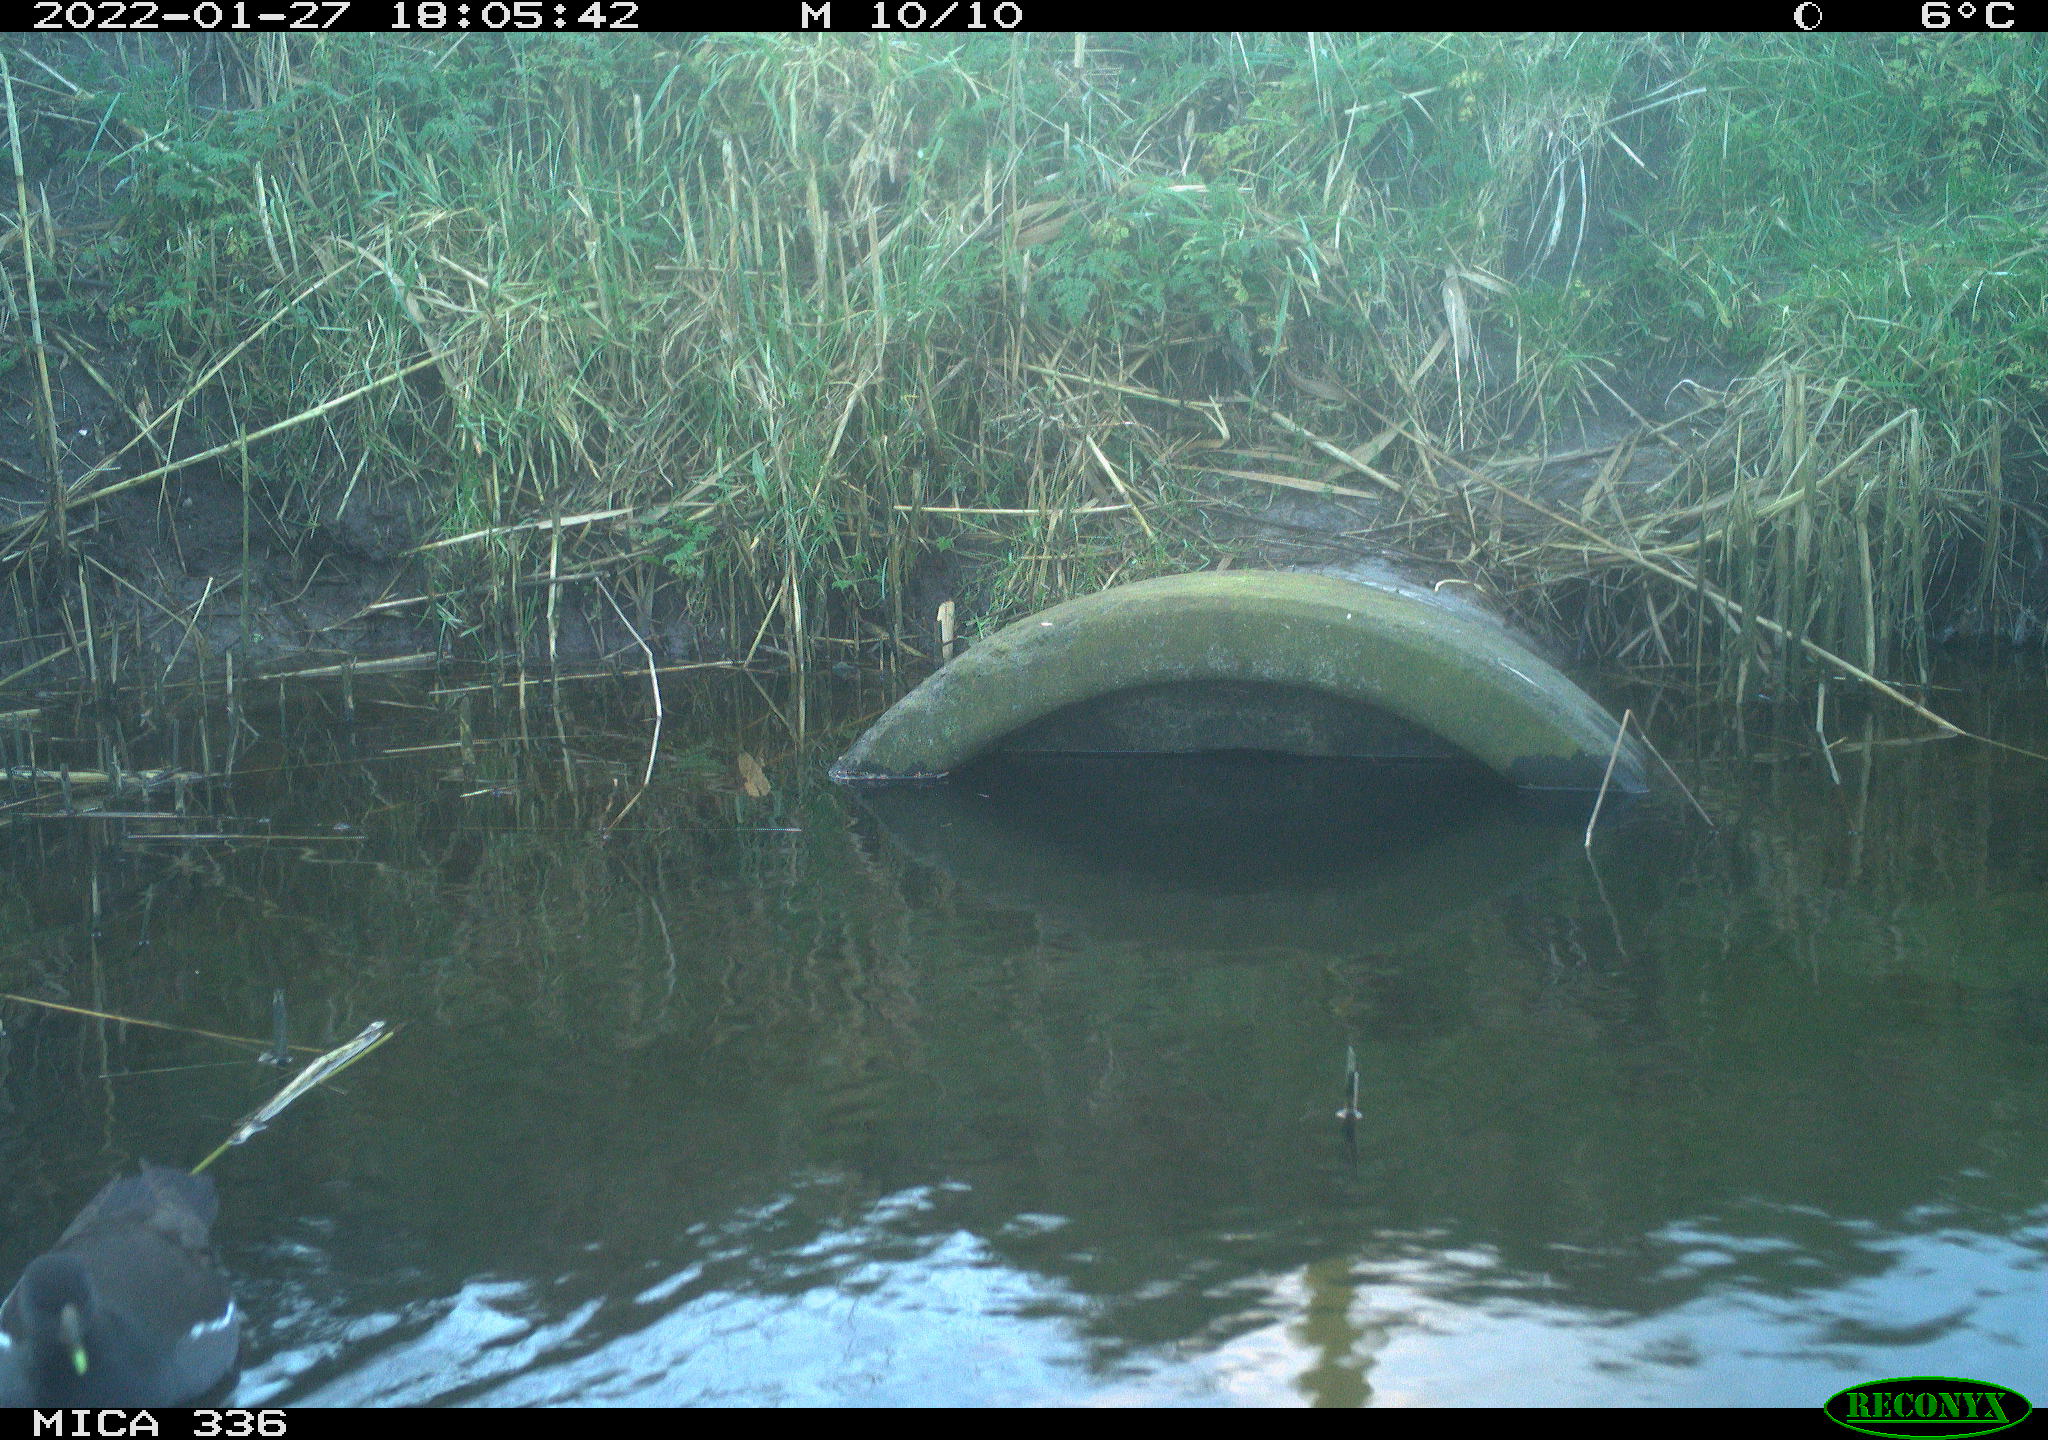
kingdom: Animalia
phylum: Chordata
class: Aves
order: Gruiformes
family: Rallidae
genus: Gallinula
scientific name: Gallinula chloropus
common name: Common moorhen
